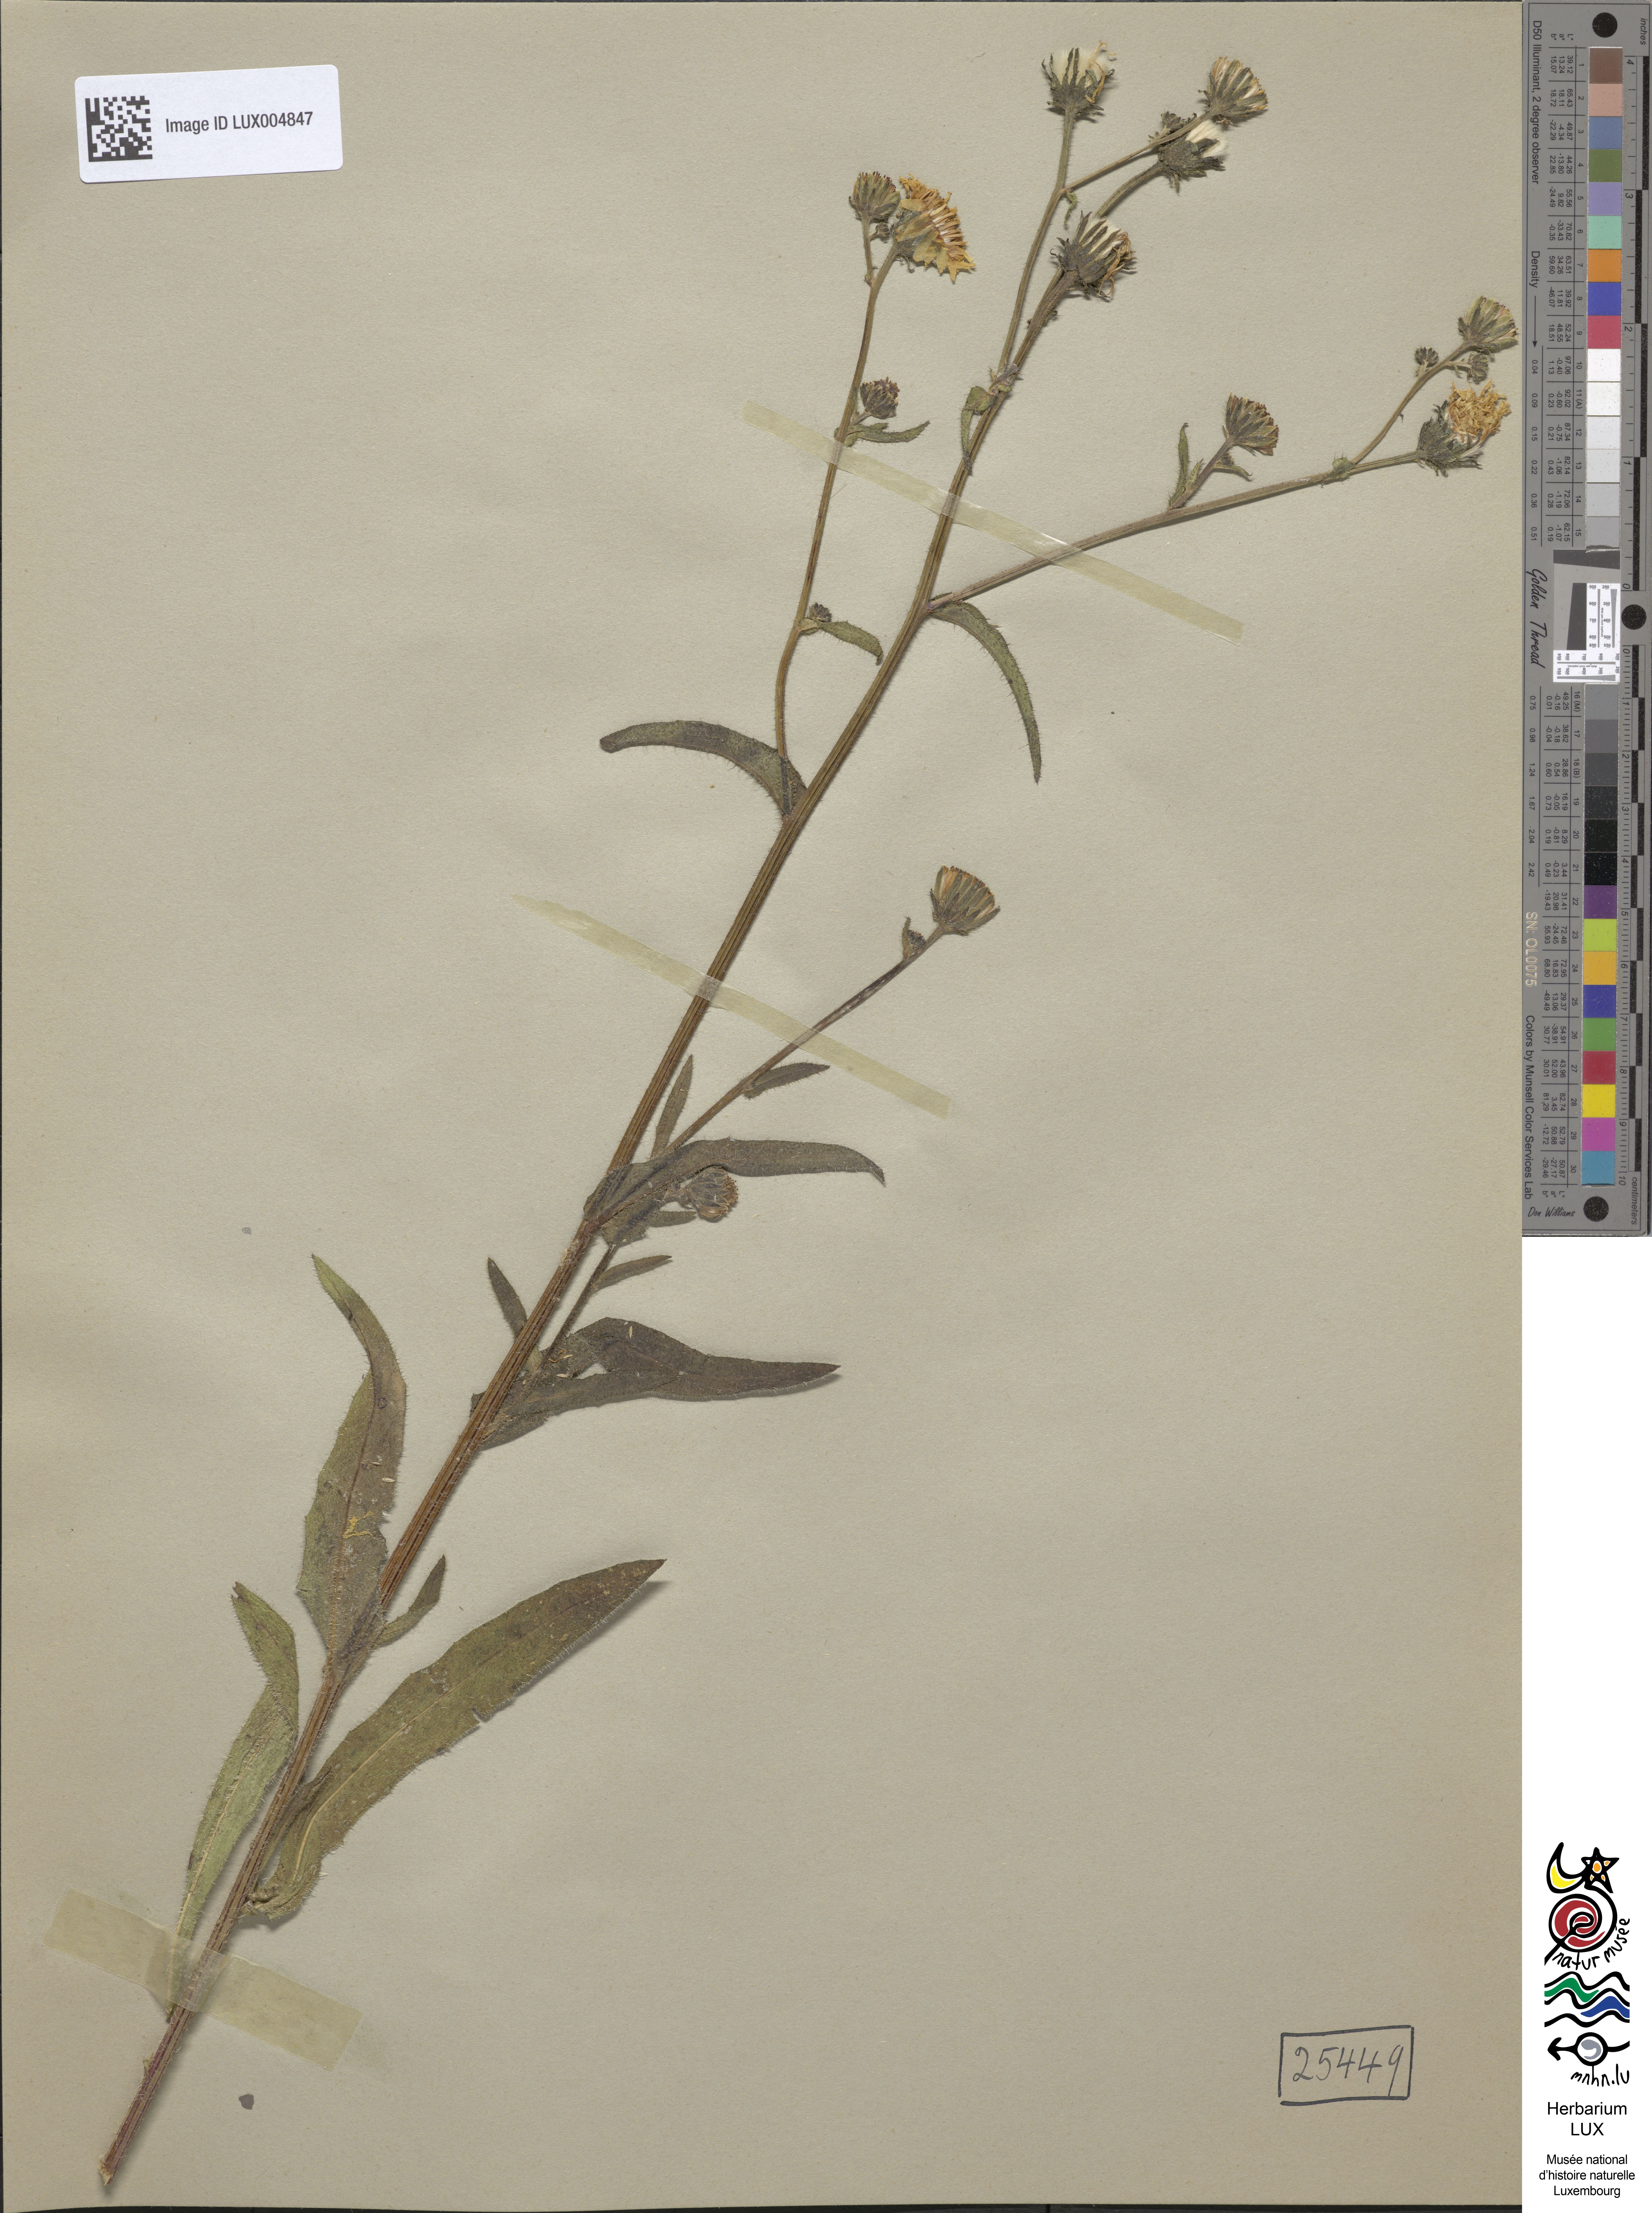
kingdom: Plantae
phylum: Tracheophyta
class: Magnoliopsida
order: Asterales
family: Asteraceae
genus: Picris
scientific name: Picris hieracioides
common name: Hawkweed oxtongue
